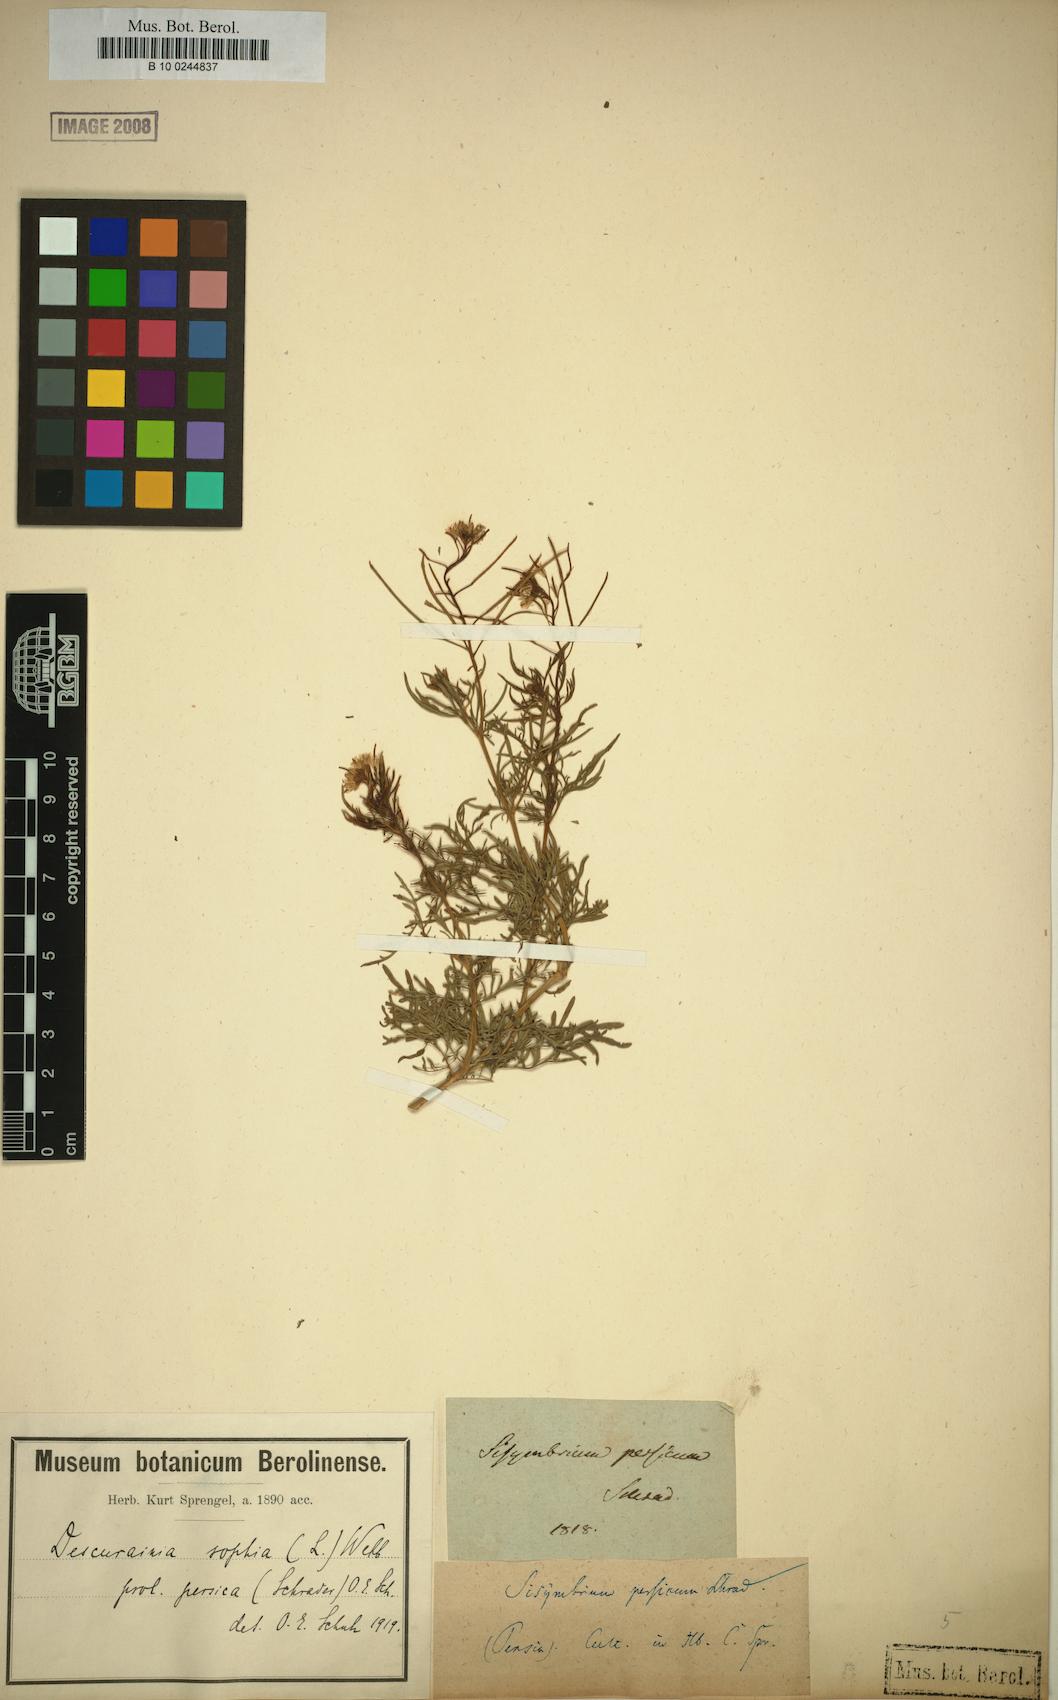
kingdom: Plantae
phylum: Tracheophyta
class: Magnoliopsida
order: Brassicales
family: Brassicaceae
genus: Descurainia
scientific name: Descurainia sophia
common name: Flixweed
